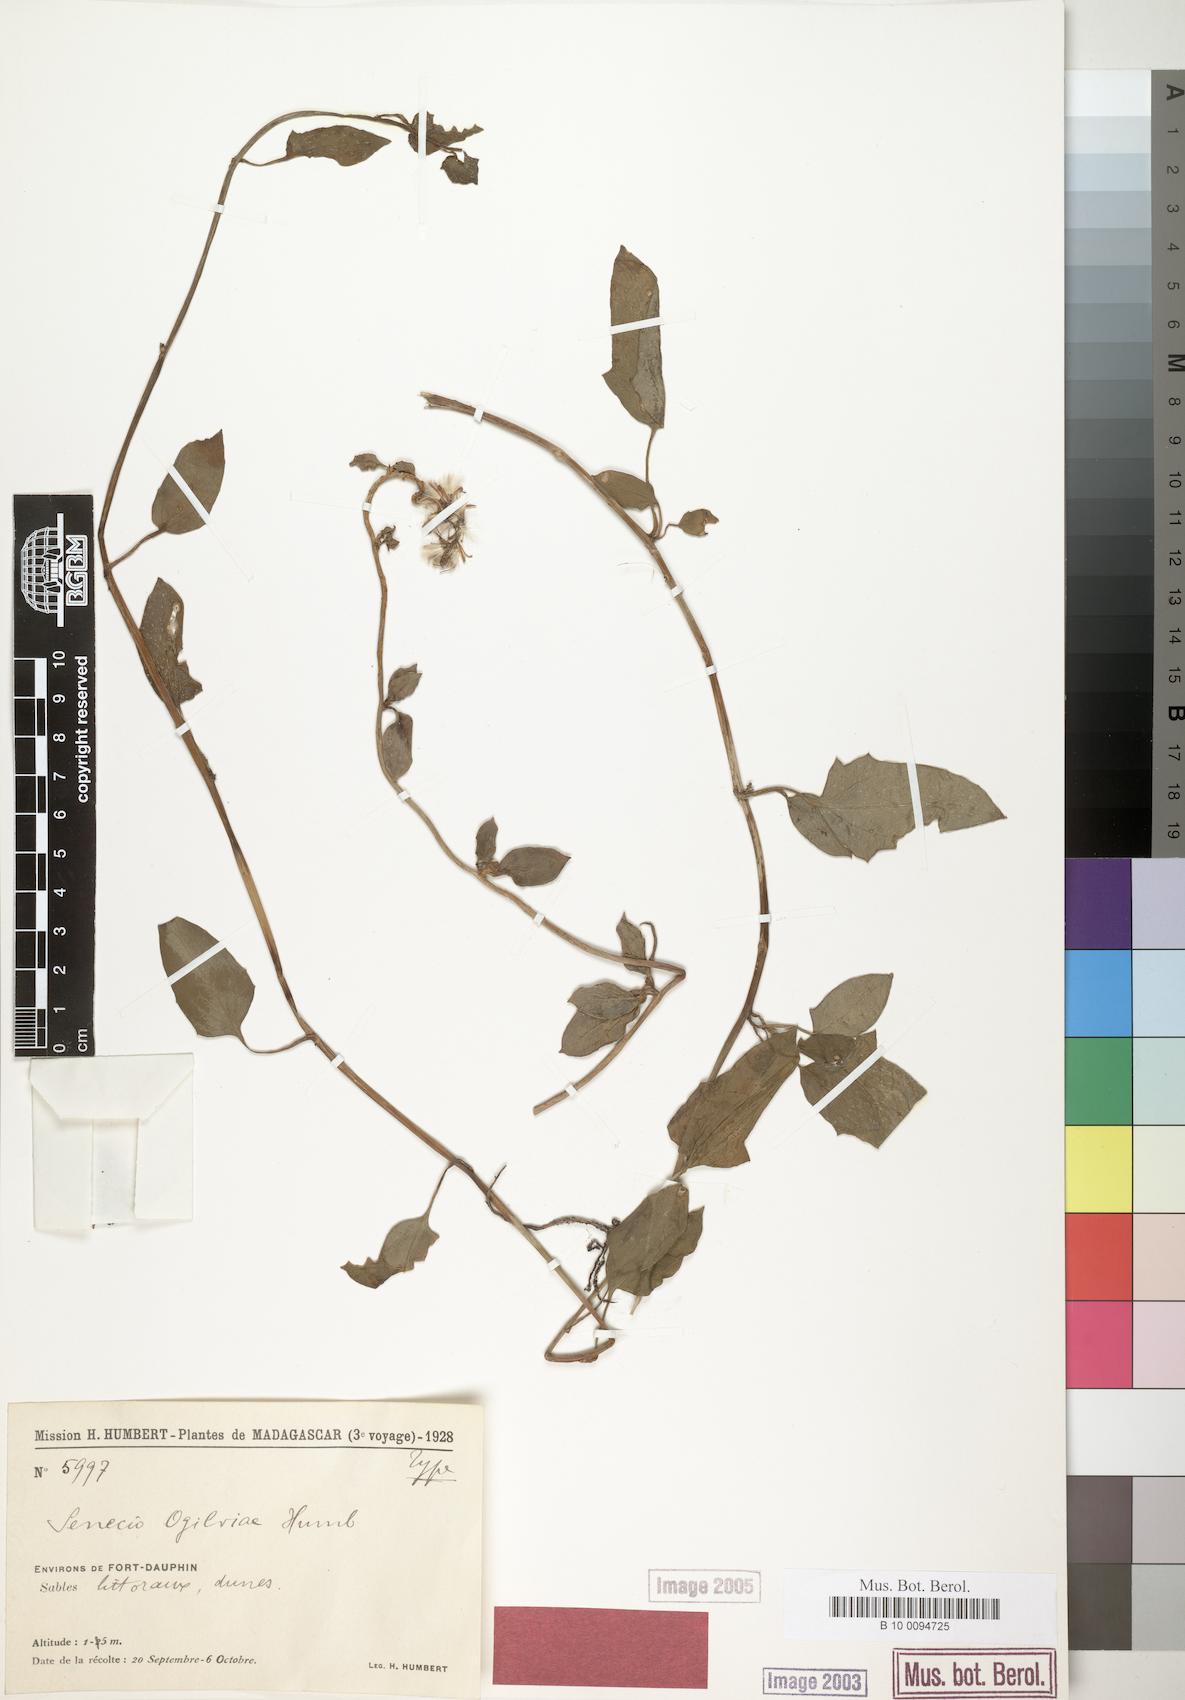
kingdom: Plantae
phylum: Tracheophyta
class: Magnoliopsida
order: Asterales
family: Asteraceae
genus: Senecio
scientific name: Senecio acetosifolius
